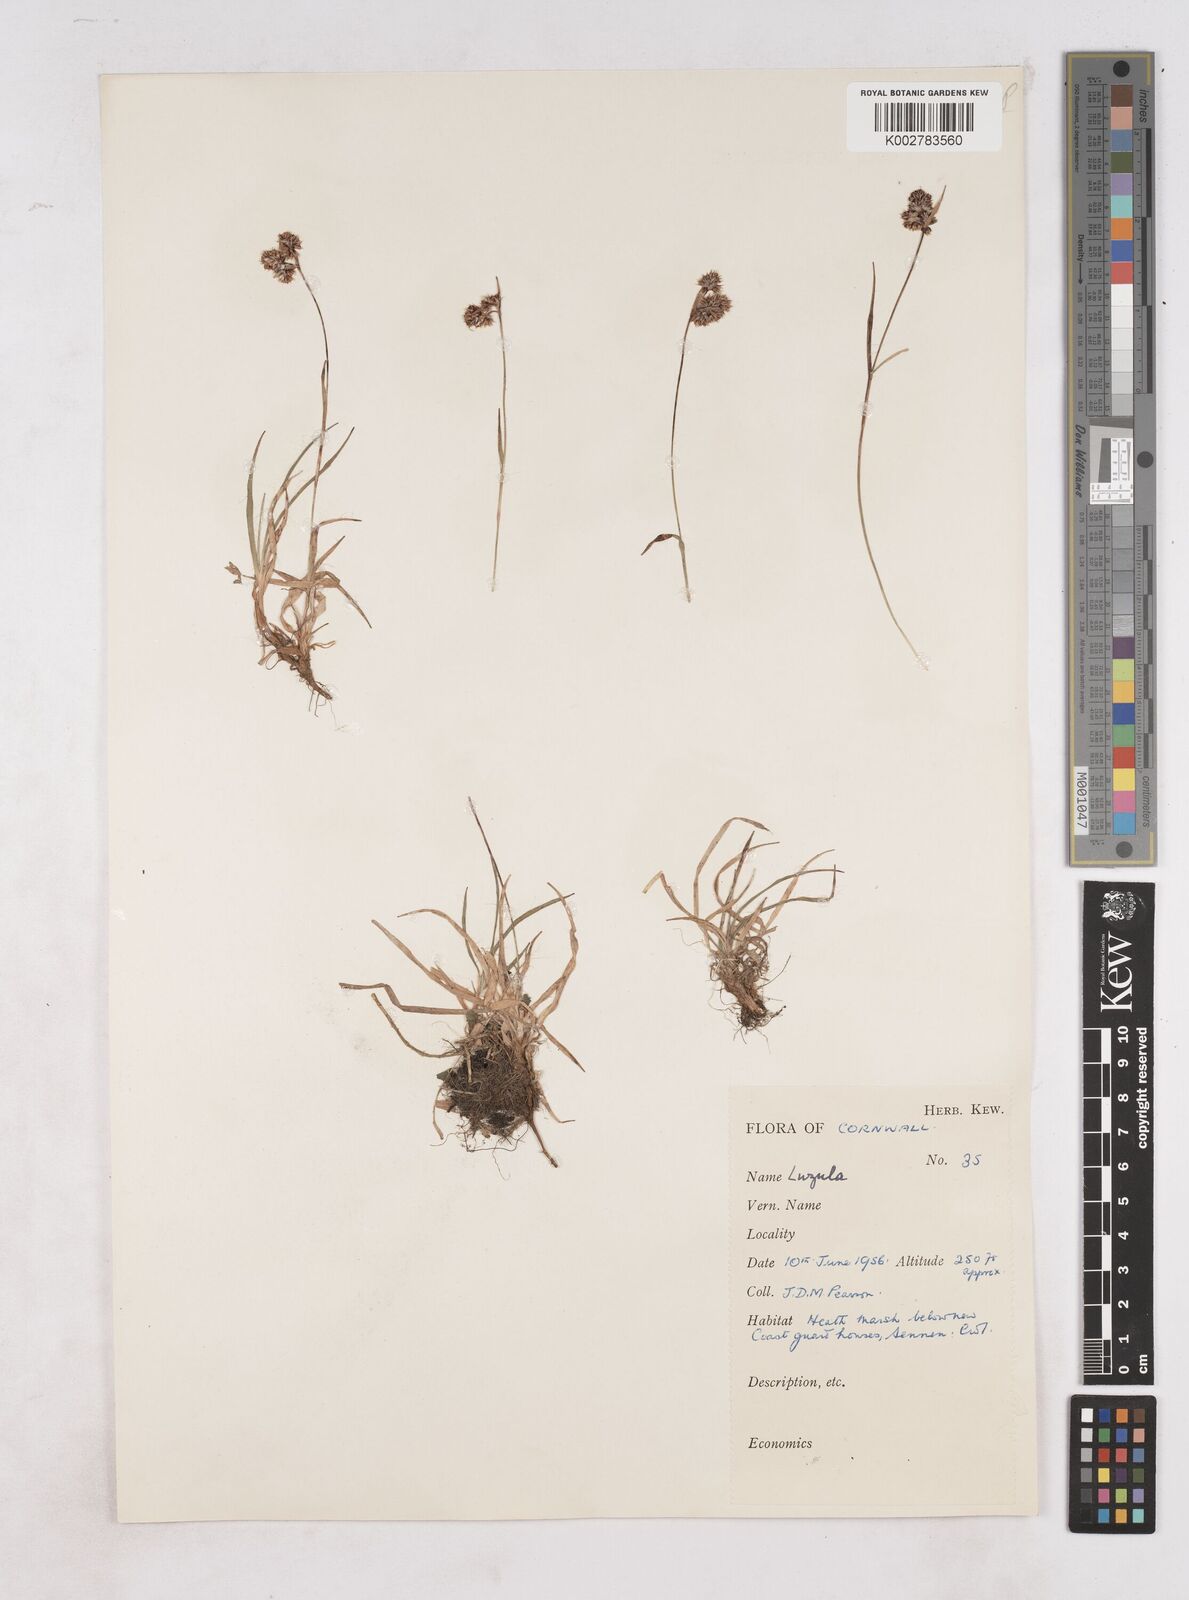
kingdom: Plantae
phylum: Tracheophyta
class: Liliopsida
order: Poales
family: Juncaceae
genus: Luzula
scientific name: Luzula
